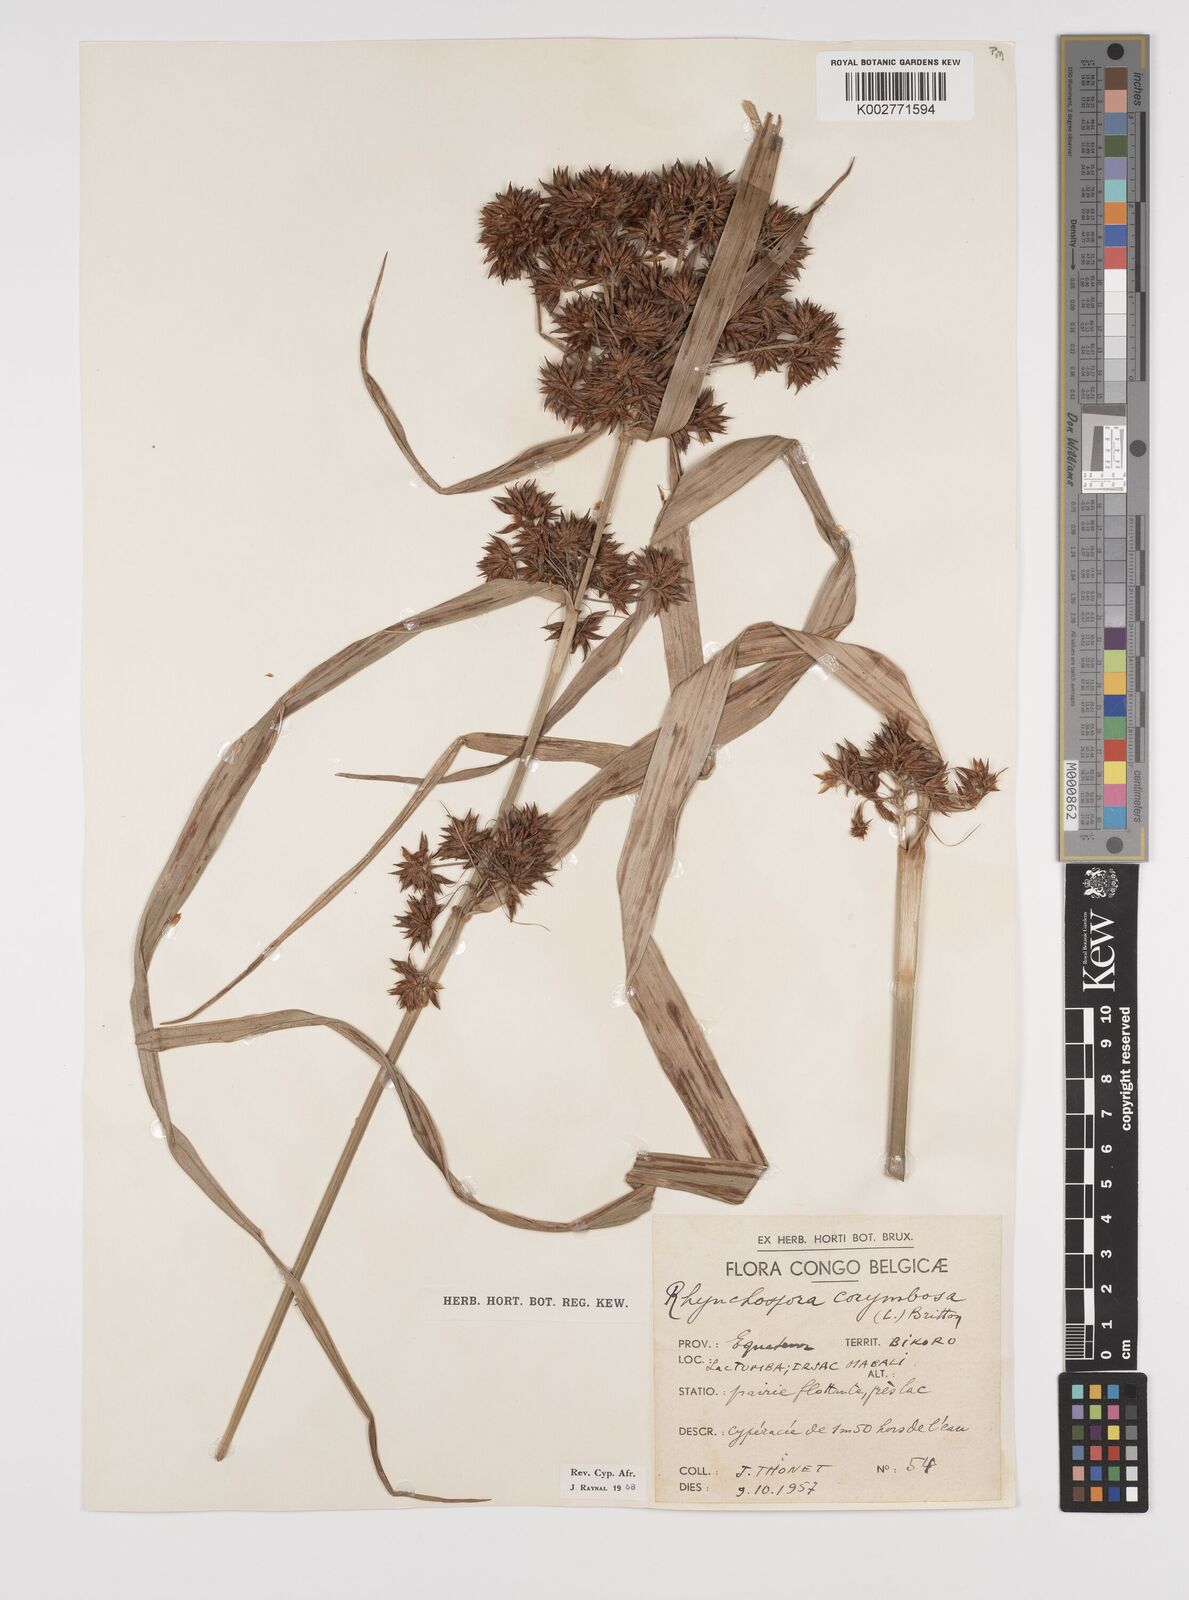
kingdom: Plantae
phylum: Tracheophyta
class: Liliopsida
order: Poales
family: Cyperaceae
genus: Rhynchospora
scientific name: Rhynchospora corymbosa
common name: Golden beak sedge
